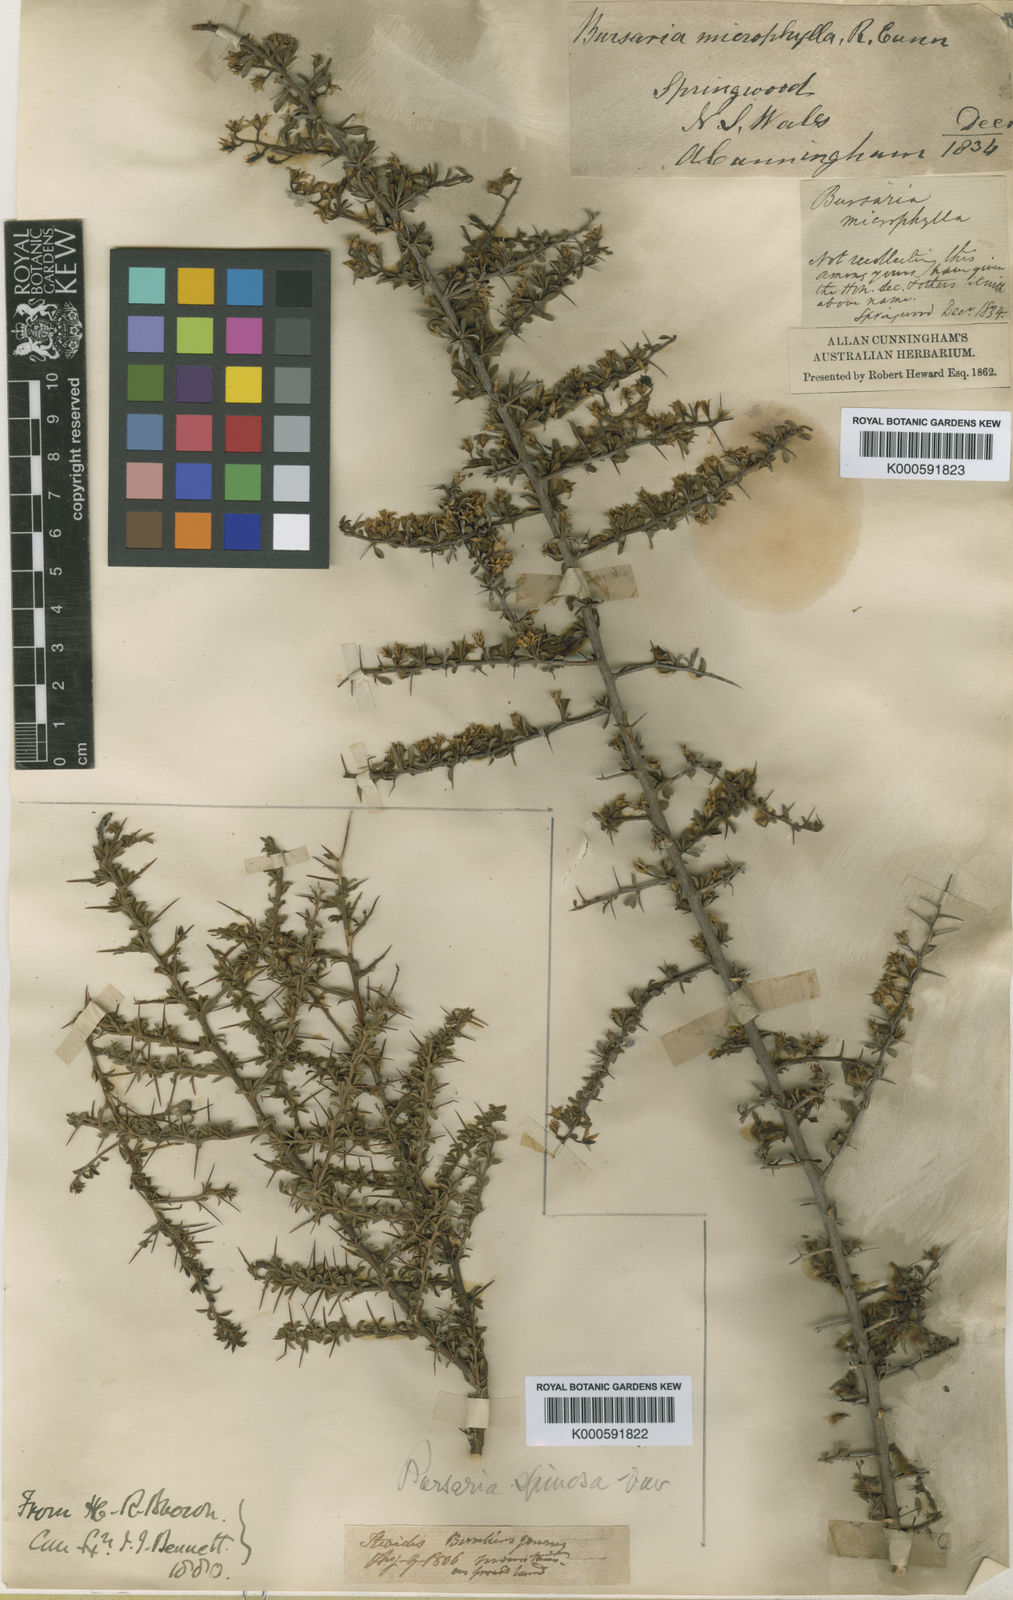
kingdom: Plantae
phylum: Tracheophyta
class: Magnoliopsida
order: Apiales
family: Pittosporaceae
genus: Bursaria
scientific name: Bursaria spinosa
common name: Australian blackthorn
